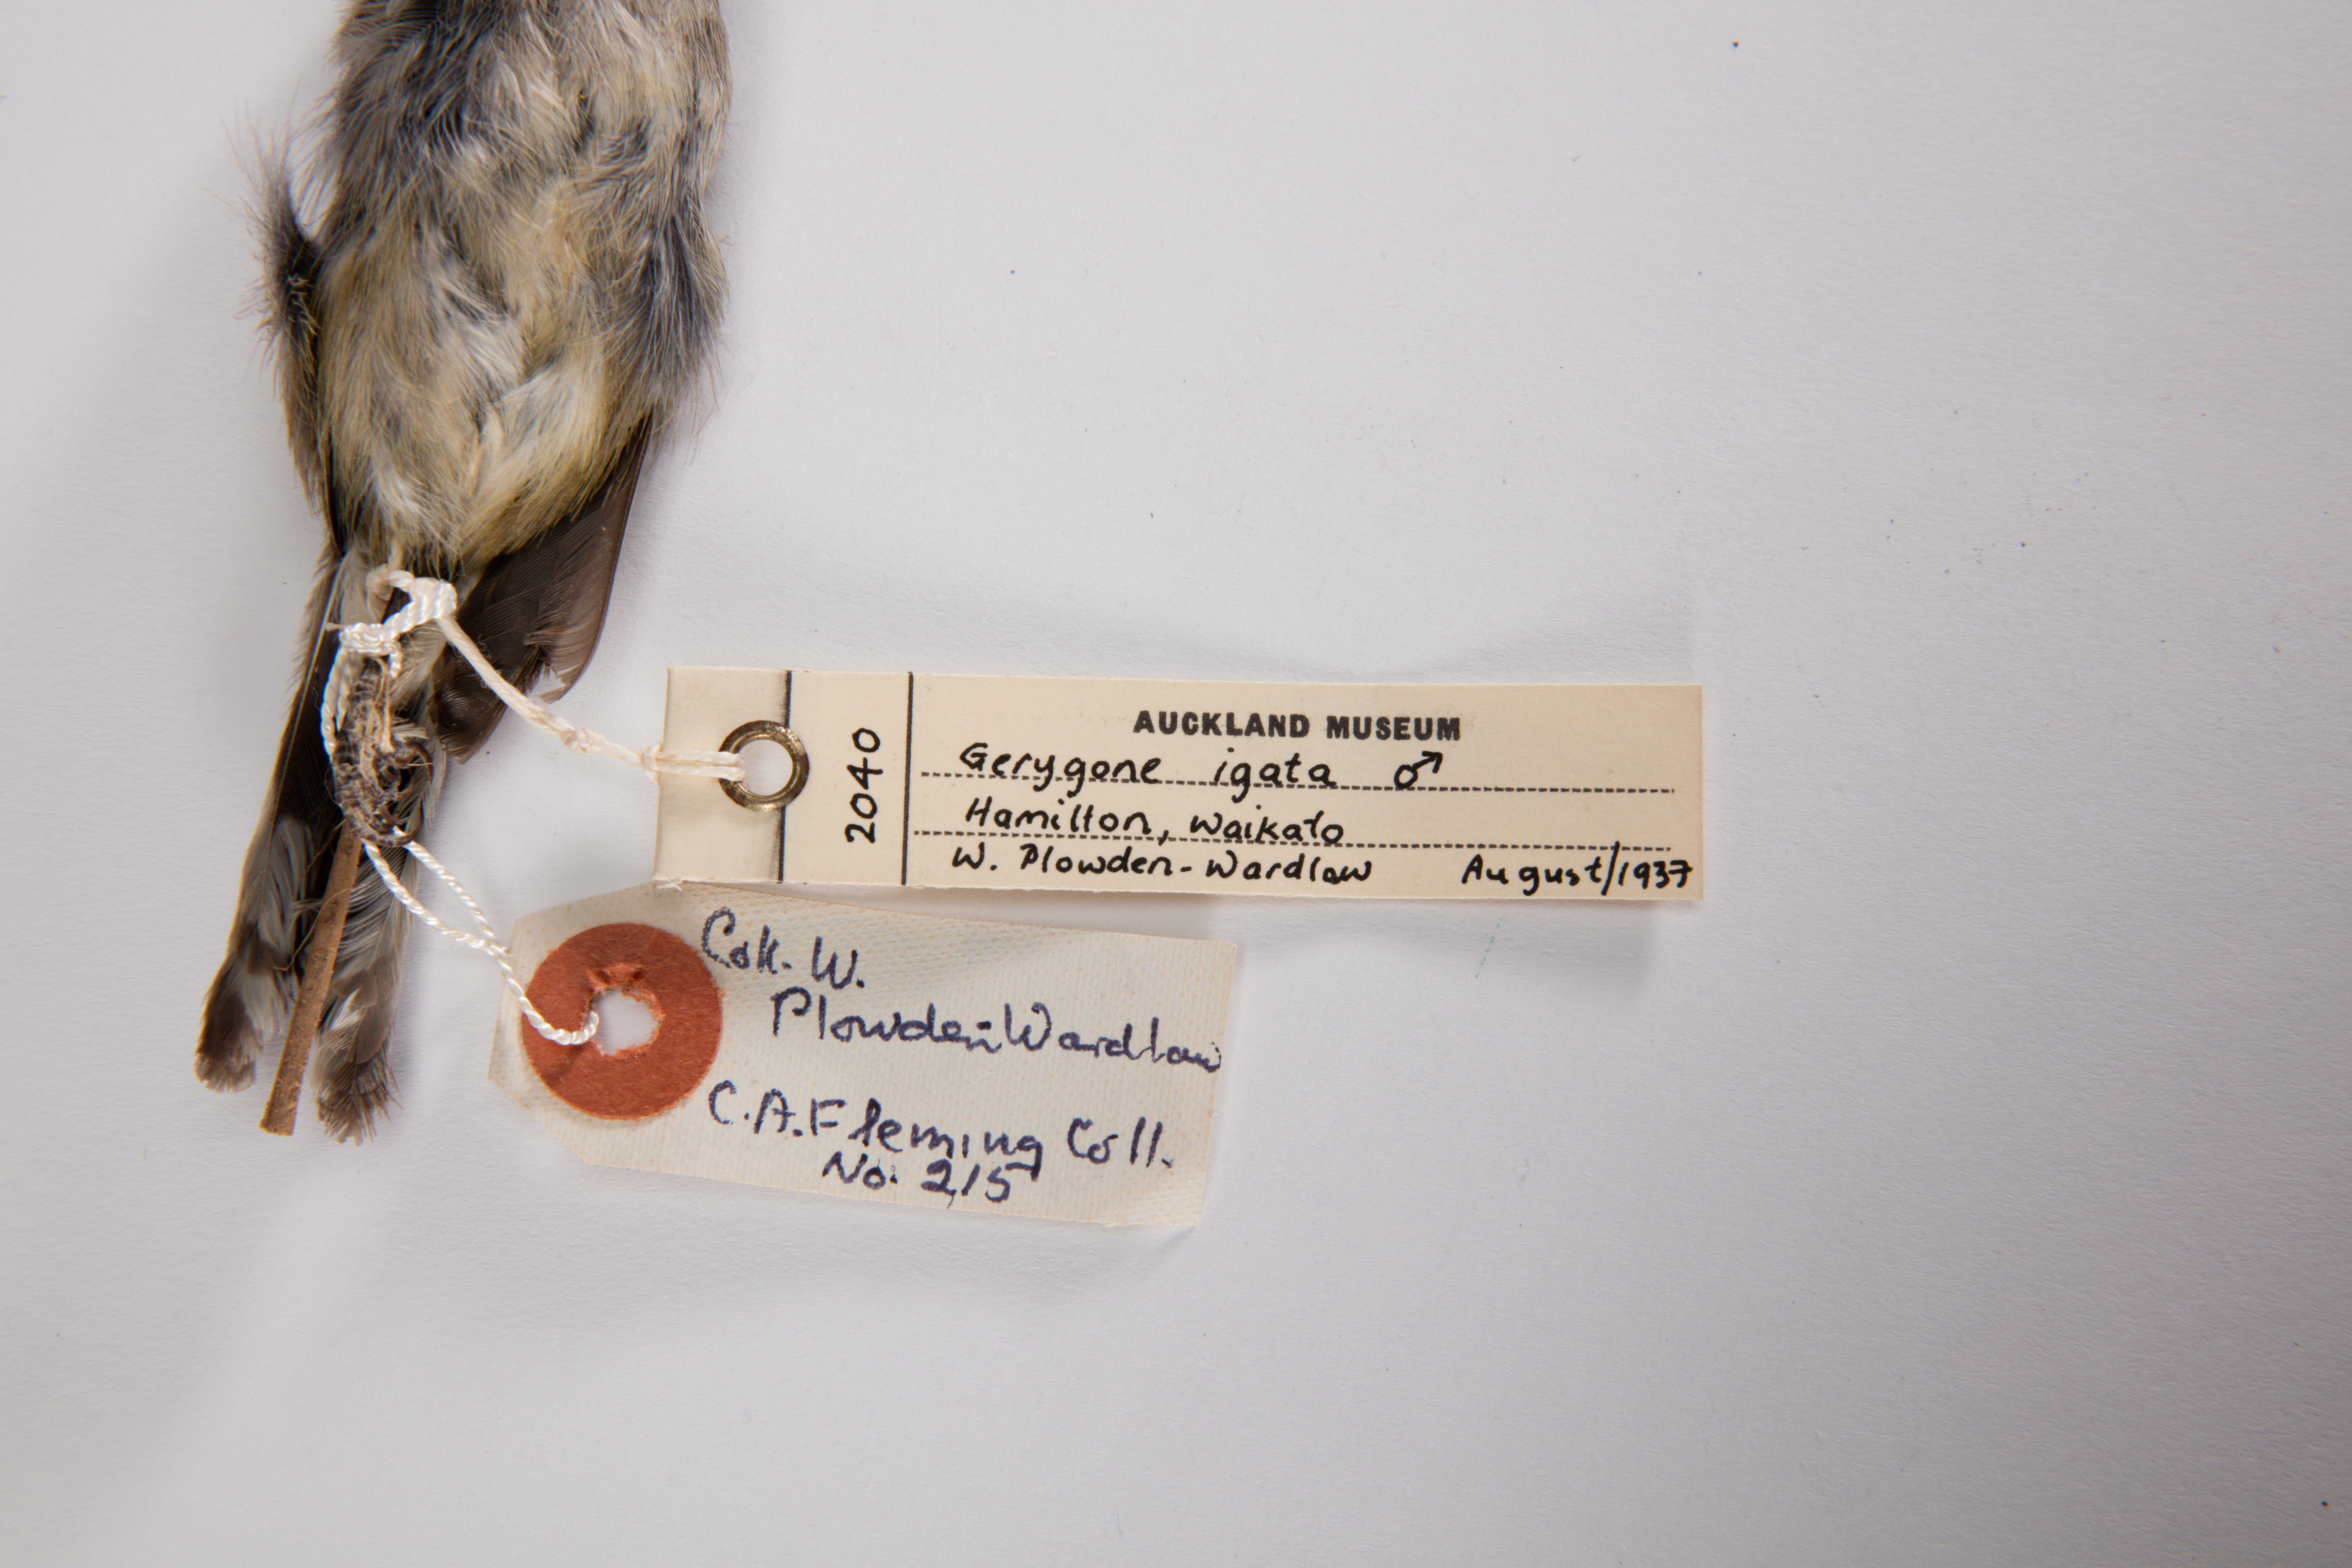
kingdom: Animalia
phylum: Chordata
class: Aves
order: Passeriformes
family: Acanthizidae
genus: Gerygone
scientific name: Gerygone igata
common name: Grey gerygone
